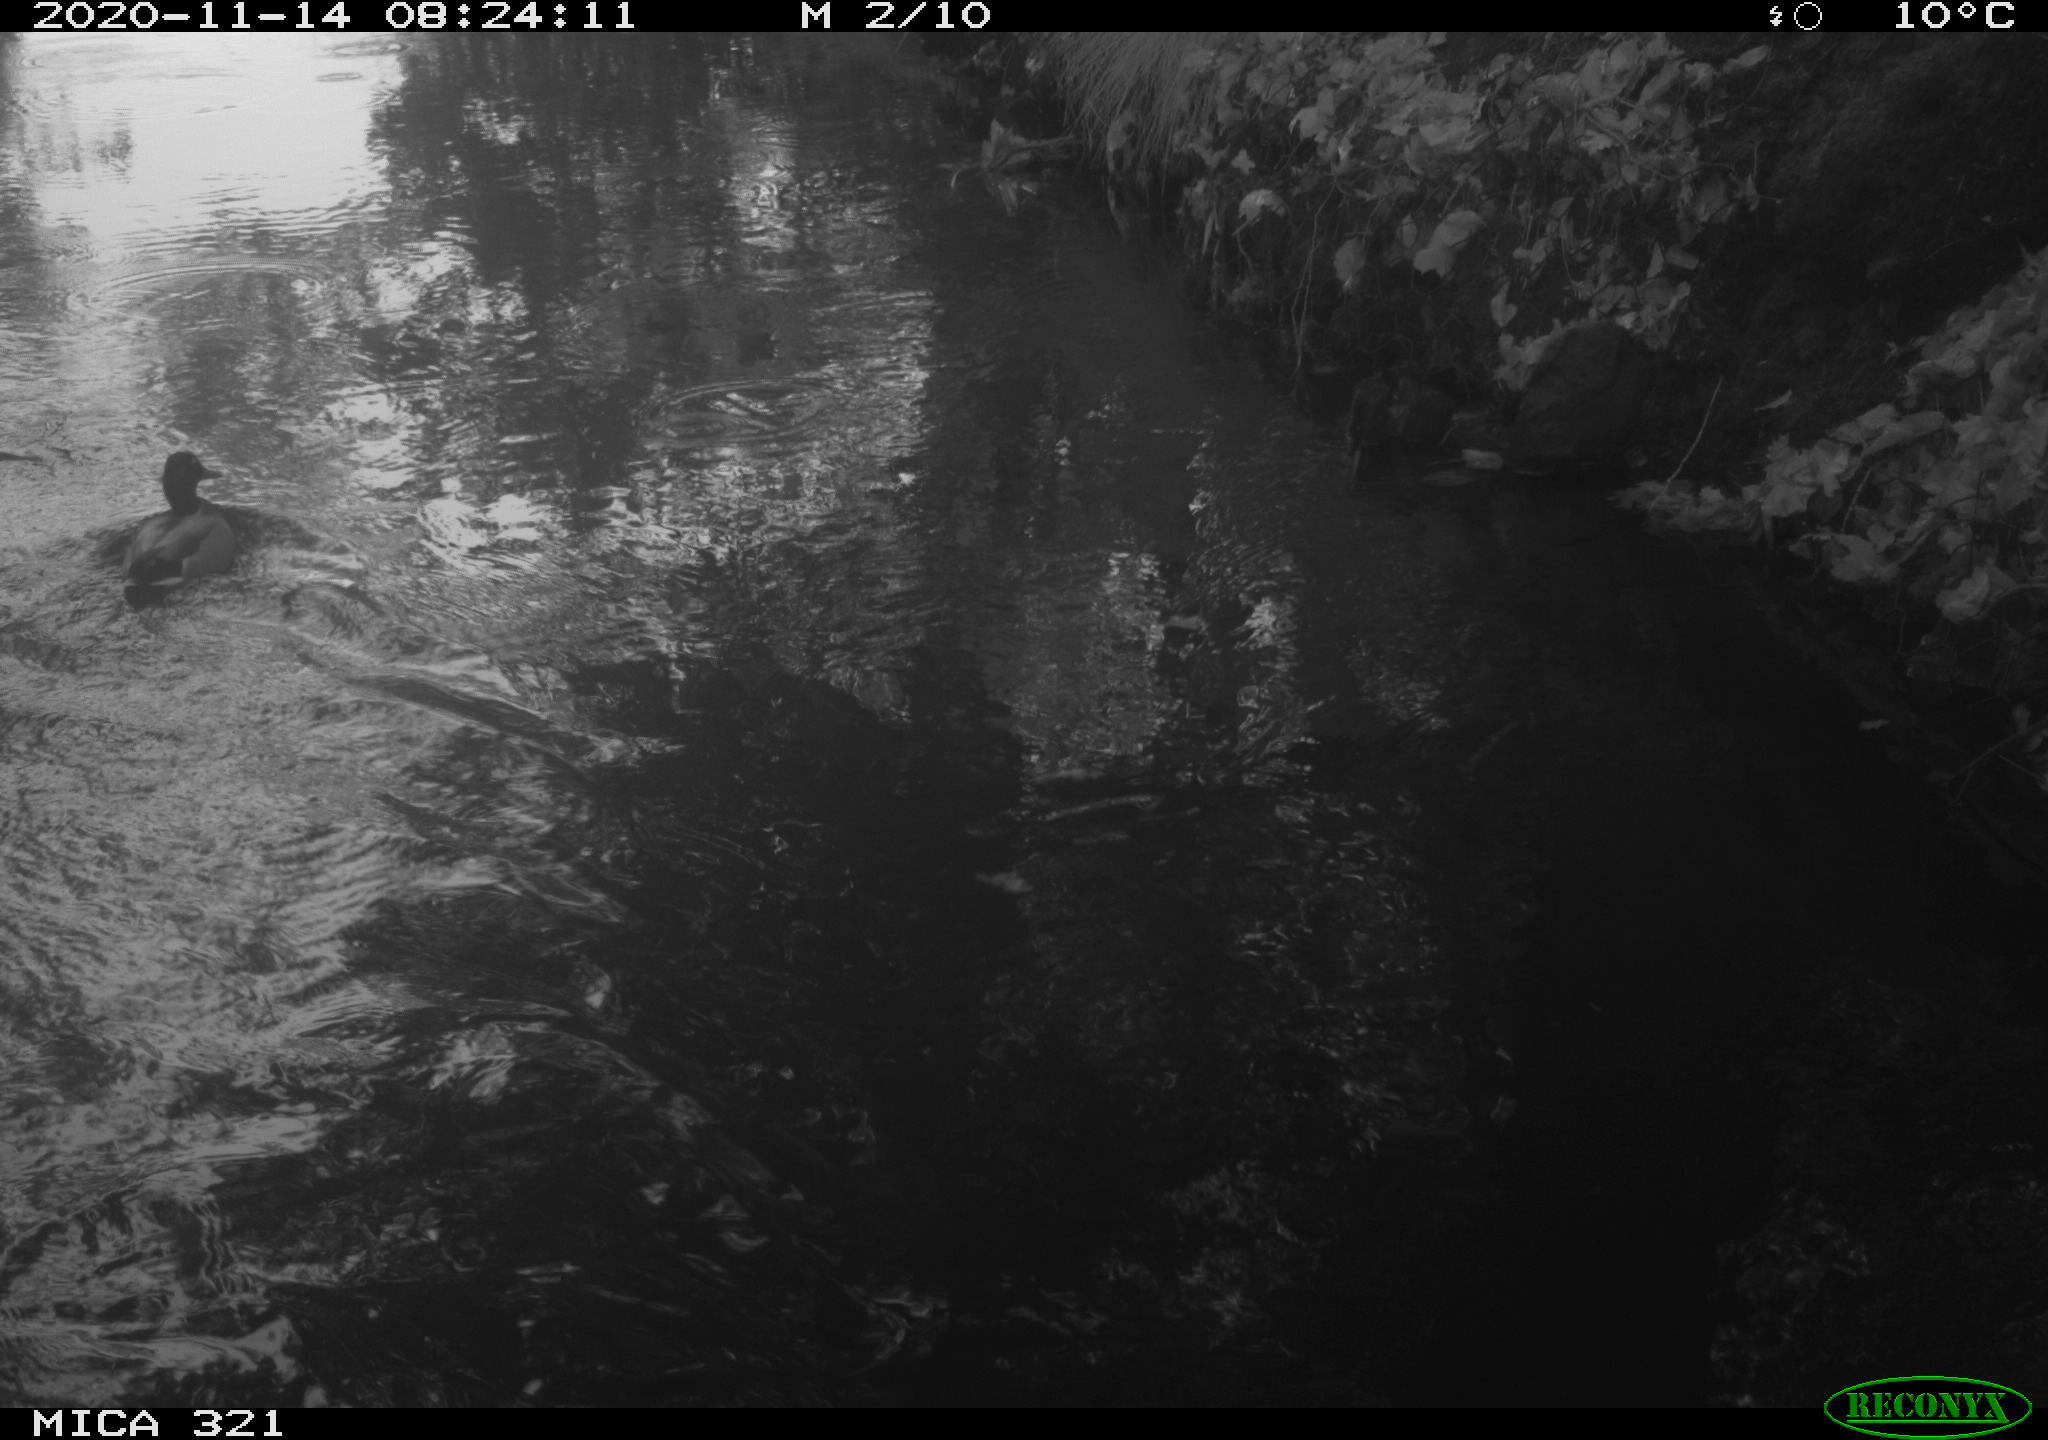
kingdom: Animalia
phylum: Chordata
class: Aves
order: Anseriformes
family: Anatidae
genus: Anas
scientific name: Anas platyrhynchos
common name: Mallard
